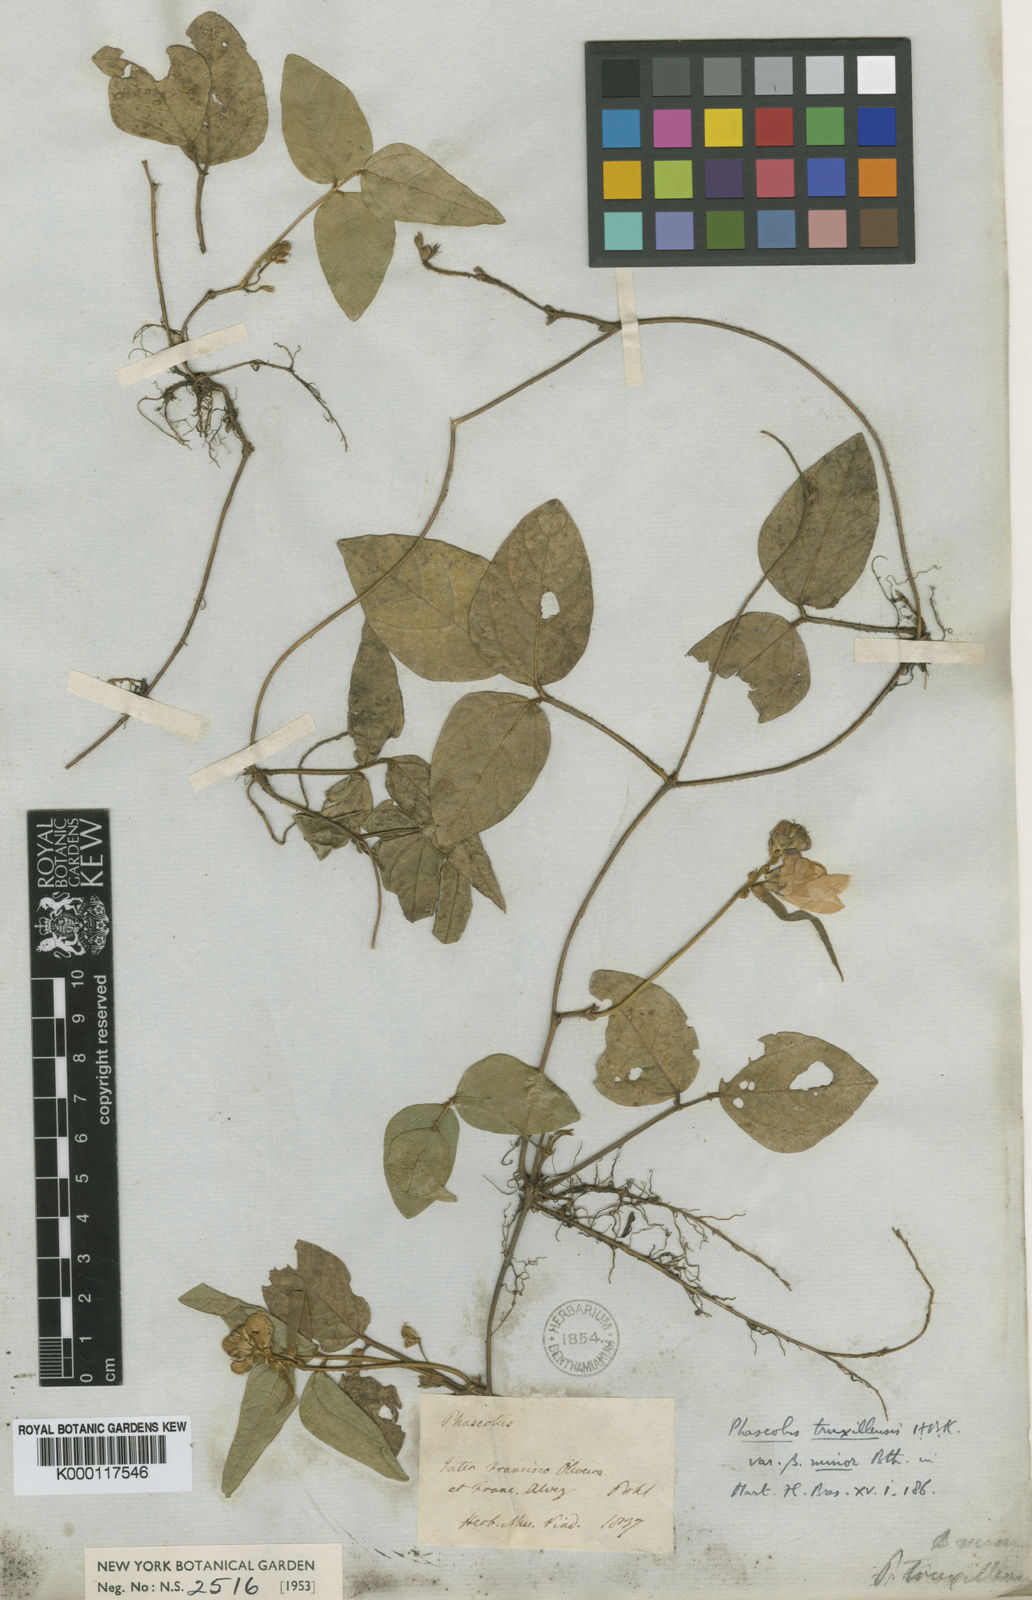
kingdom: Plantae
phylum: Tracheophyta
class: Magnoliopsida
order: Fabales
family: Fabaceae
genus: Vigna
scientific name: Vigna
